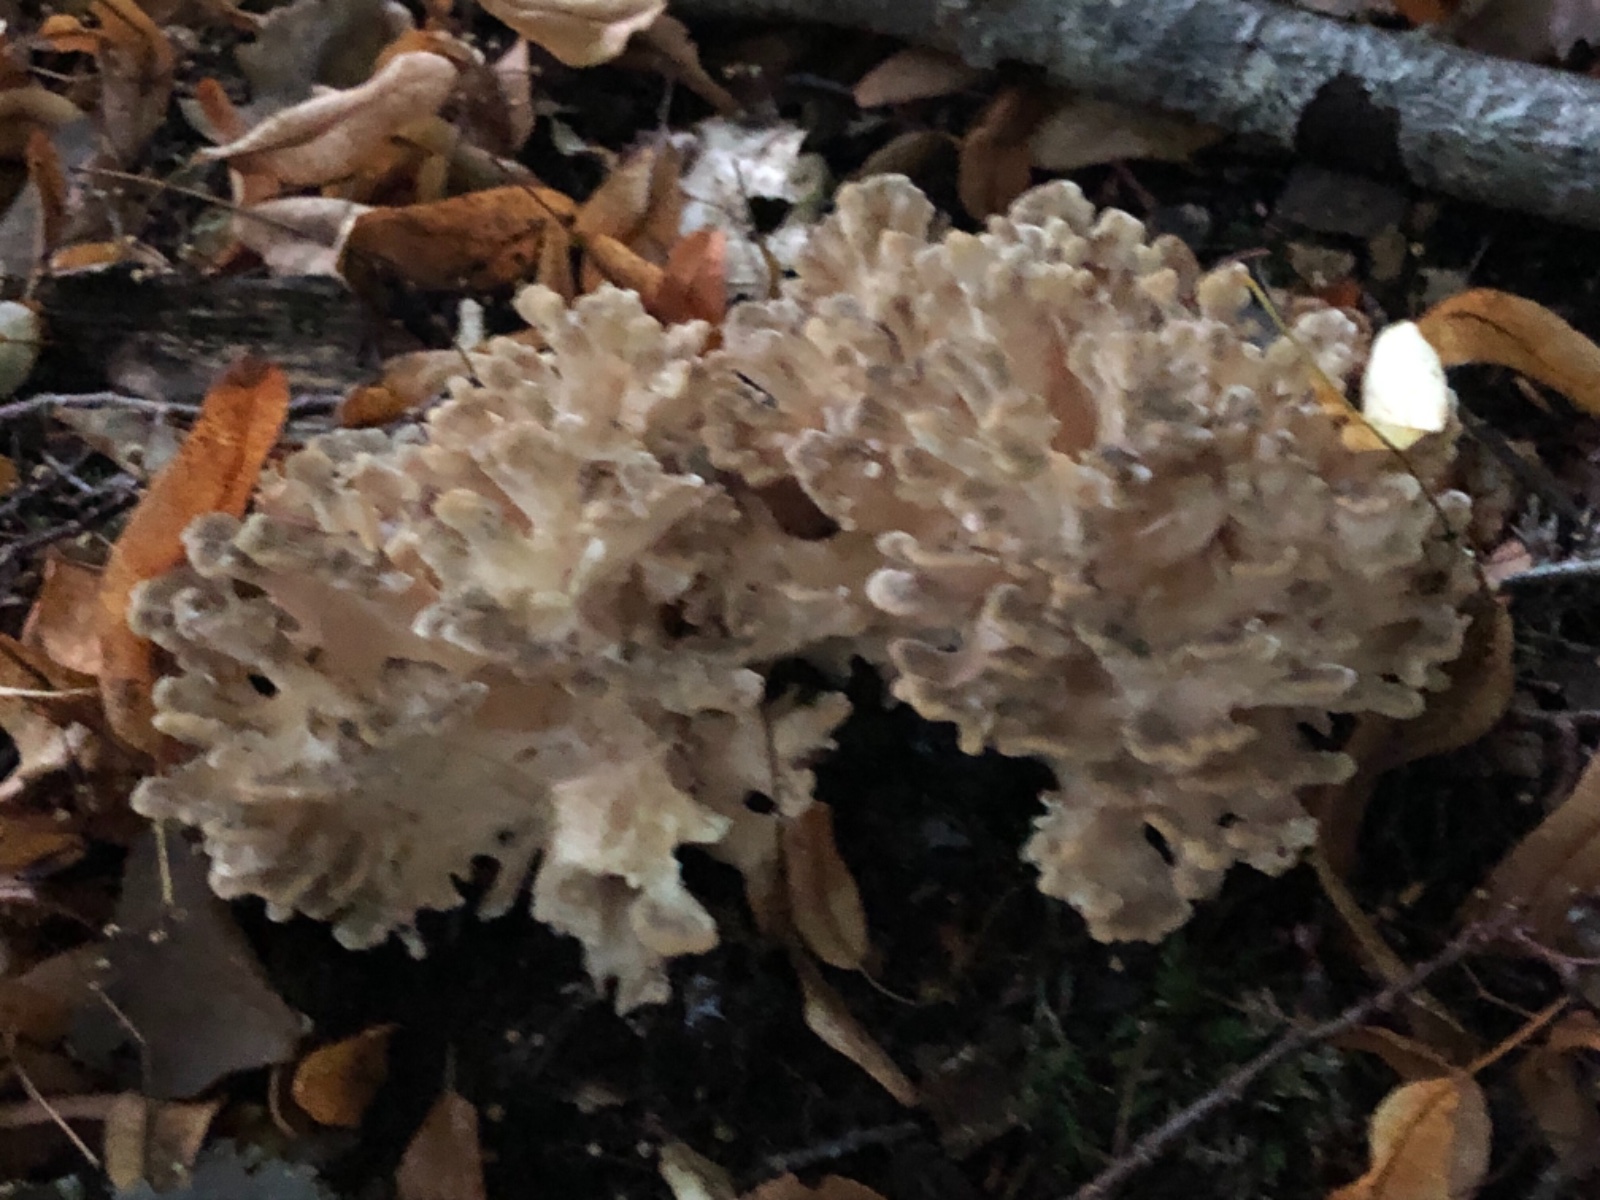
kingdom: Fungi
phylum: Basidiomycota
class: Agaricomycetes
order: Polyporales
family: Grifolaceae
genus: Grifola
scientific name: Grifola frondosa
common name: tueporesvamp
